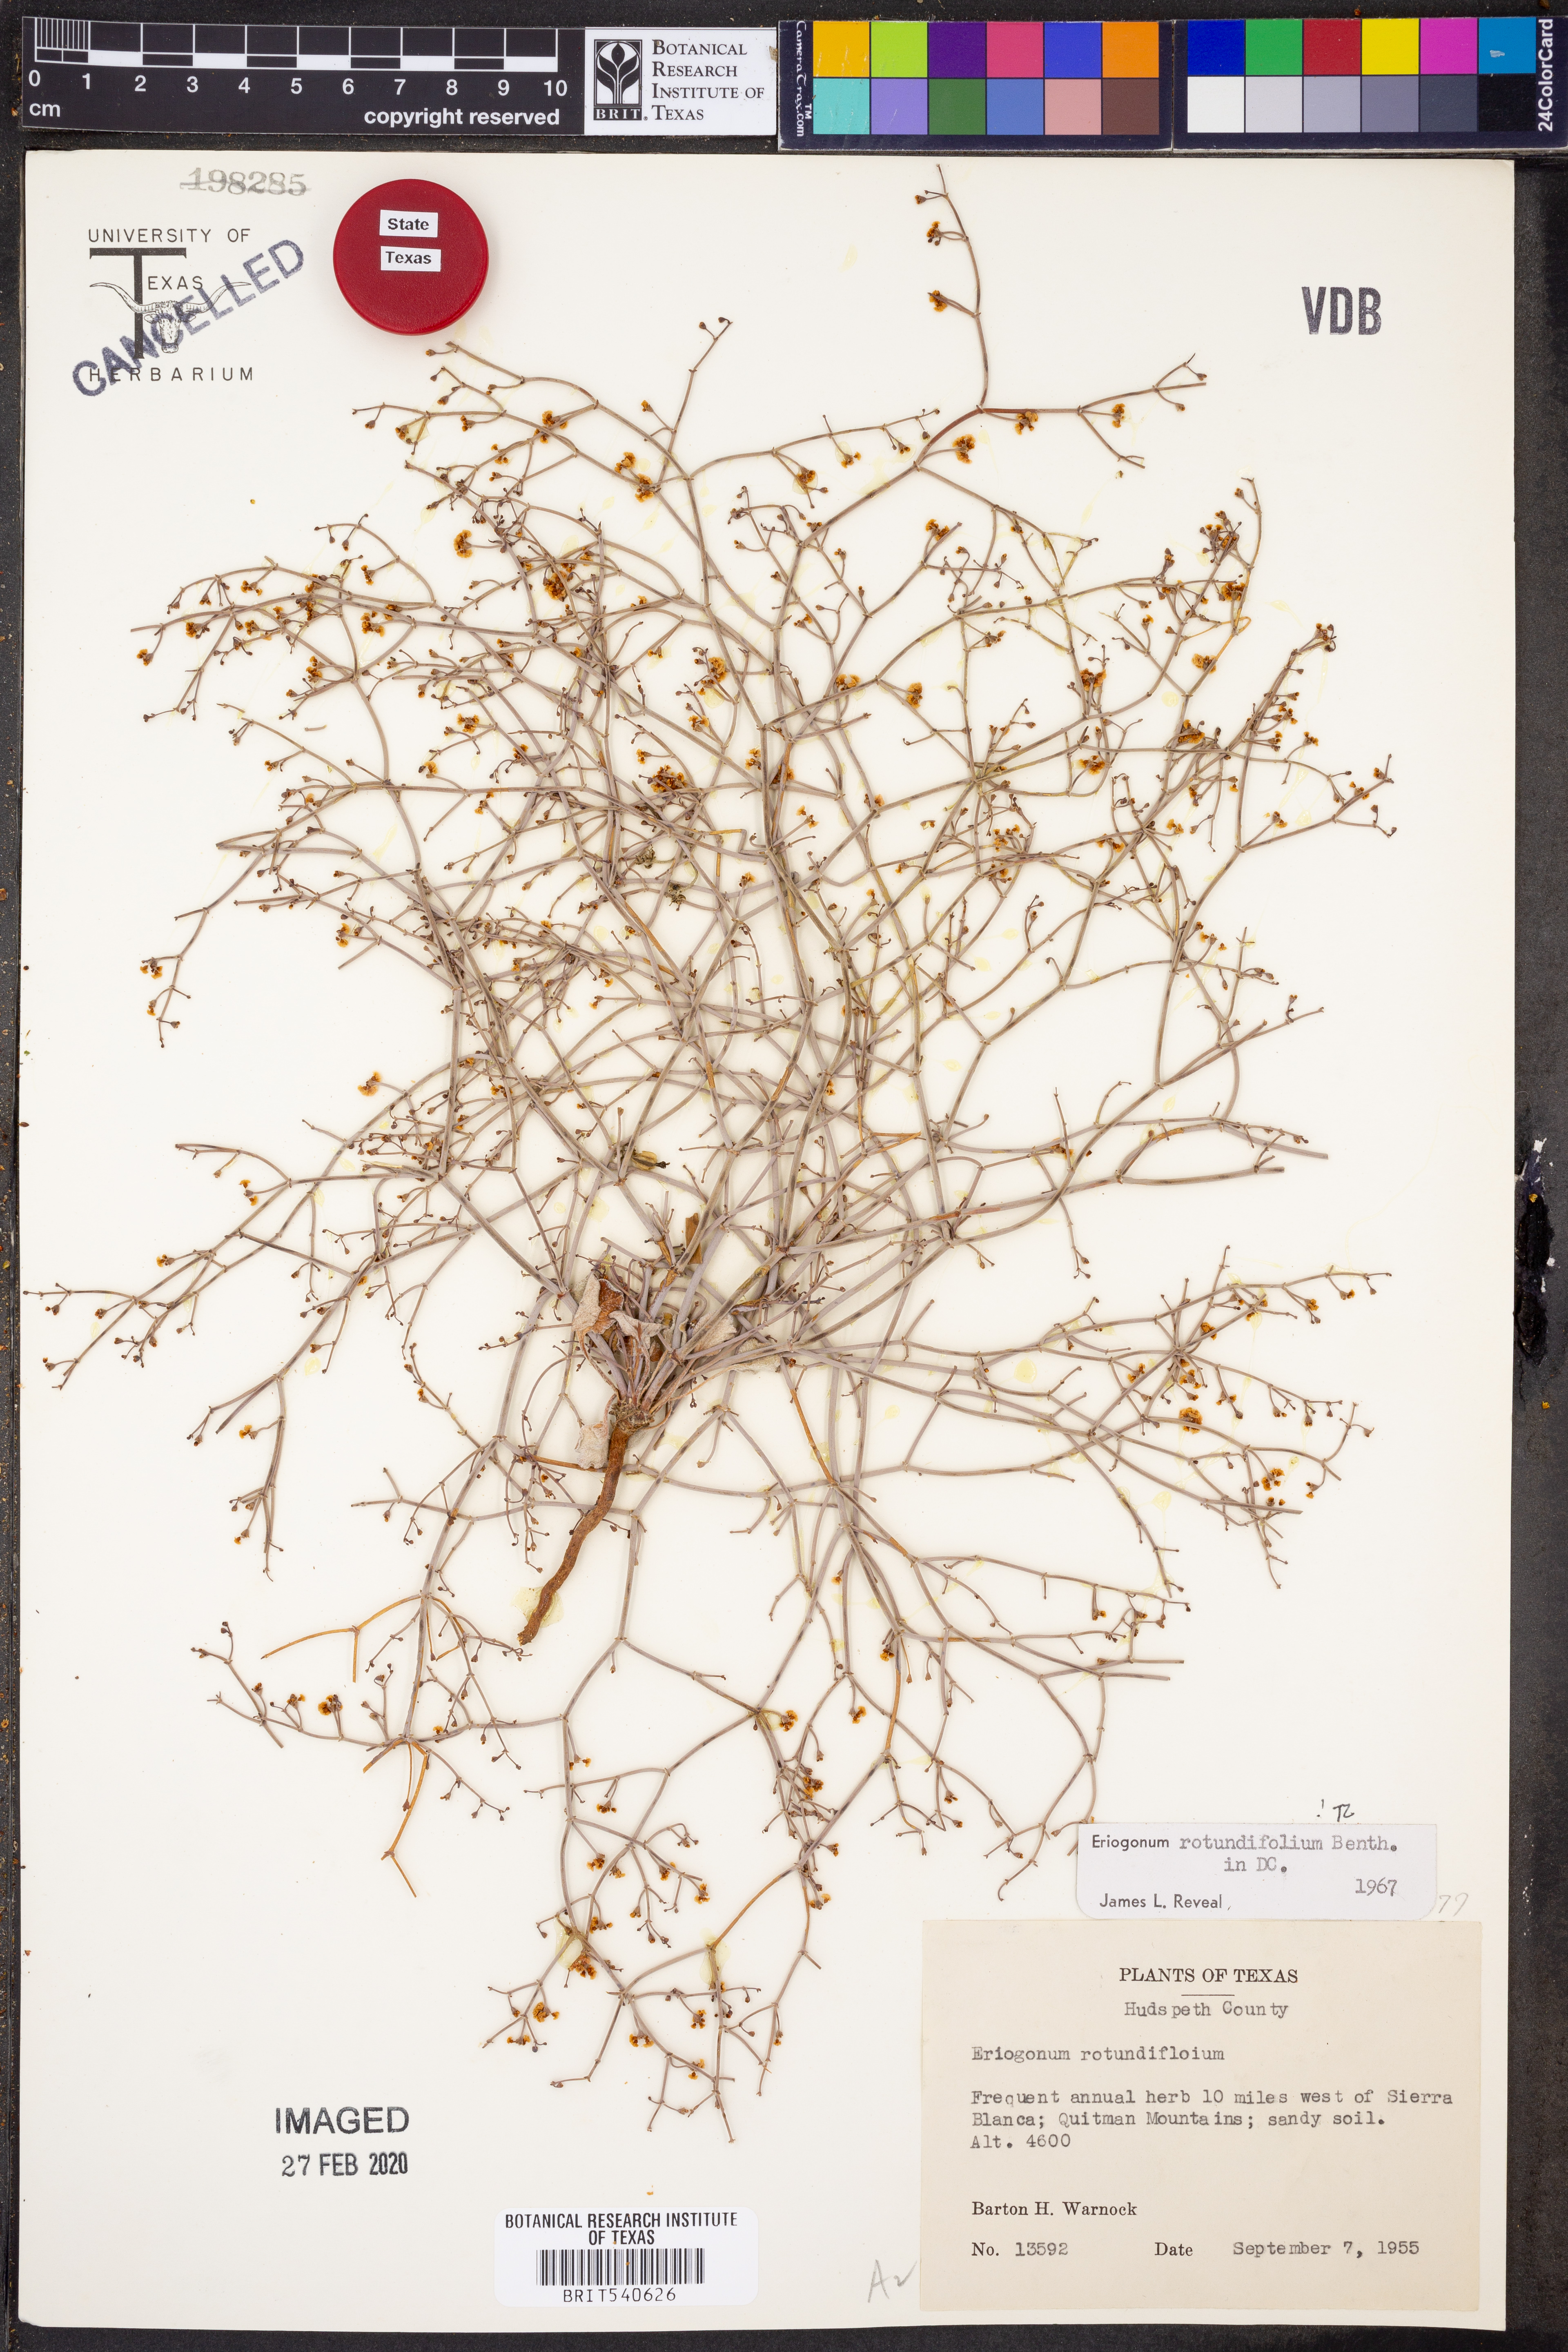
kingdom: Plantae
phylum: Tracheophyta
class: Magnoliopsida
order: Caryophyllales
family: Polygonaceae
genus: Eriogonum
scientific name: Eriogonum rotundifolium
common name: Round-leaf wild buckwheat
